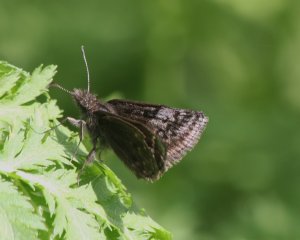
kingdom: Animalia
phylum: Arthropoda
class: Insecta
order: Lepidoptera
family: Hesperiidae
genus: Erynnis
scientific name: Erynnis icelus
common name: Dreamy Duskywing
